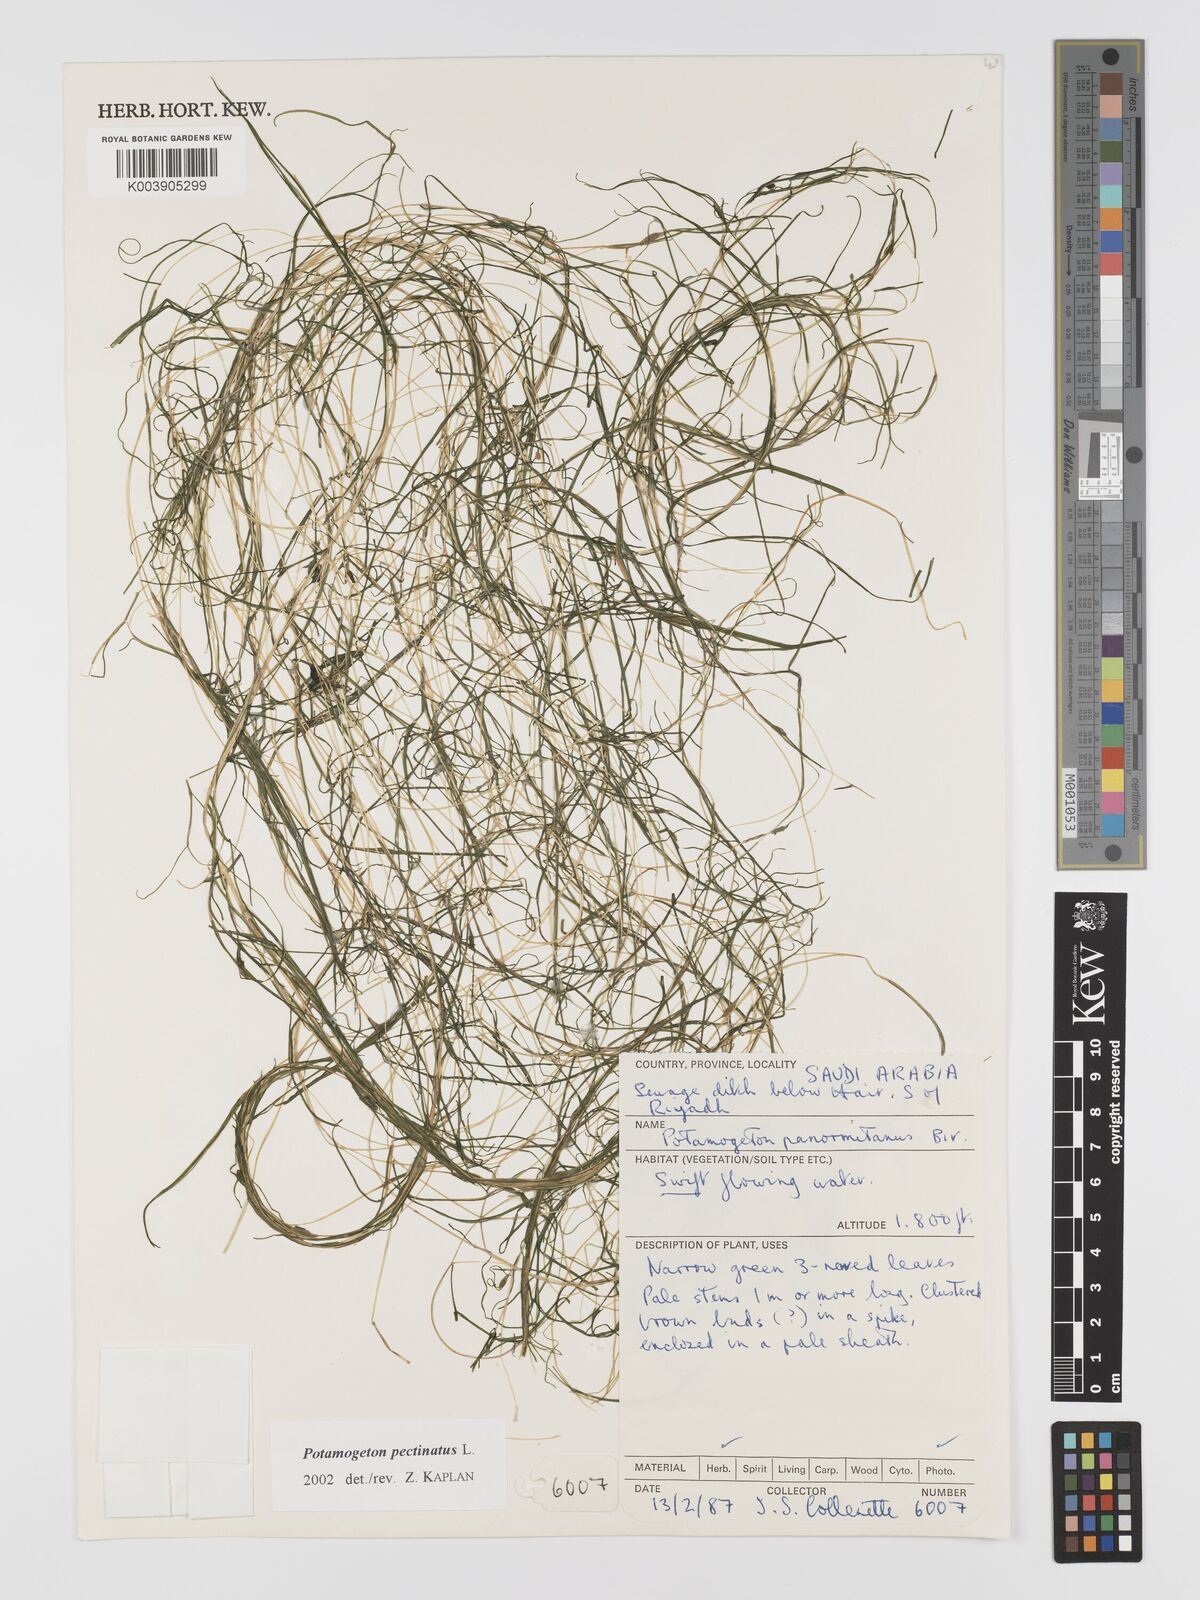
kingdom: Plantae
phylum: Tracheophyta
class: Liliopsida
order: Alismatales
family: Potamogetonaceae
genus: Stuckenia
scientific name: Stuckenia pectinata
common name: Sago pondweed
